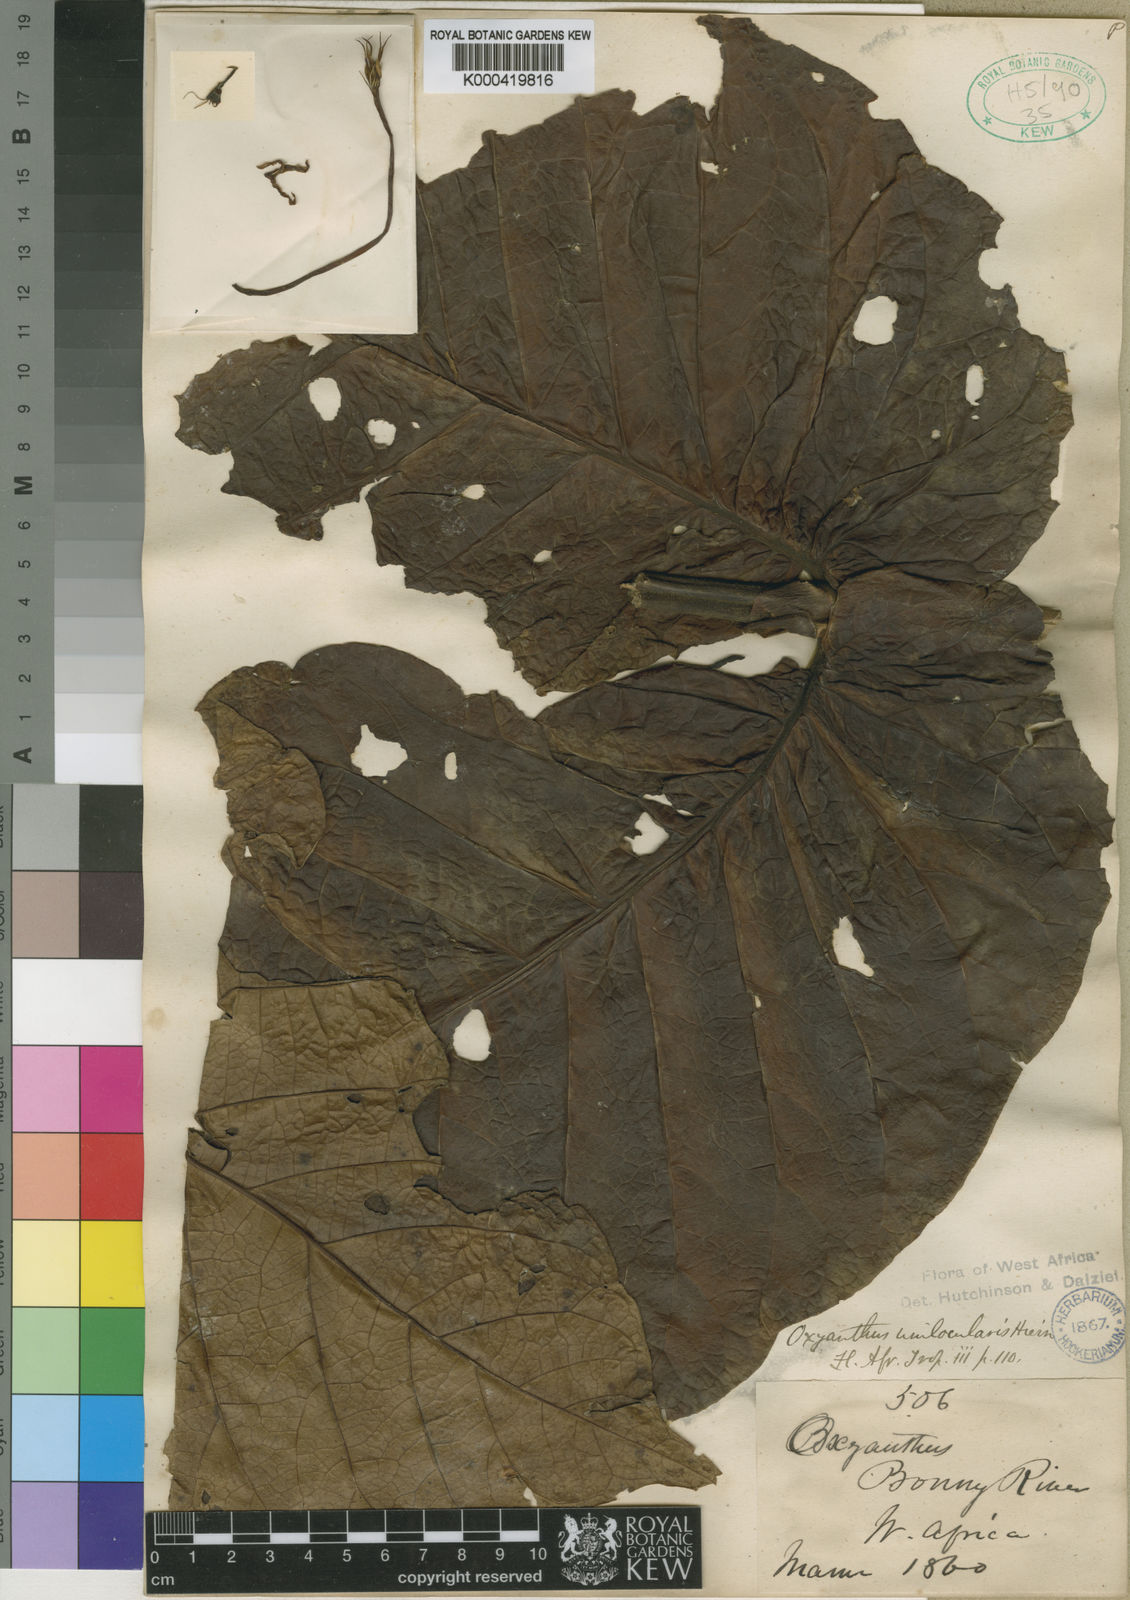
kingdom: Plantae
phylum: Tracheophyta
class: Magnoliopsida
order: Gentianales
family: Rubiaceae
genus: Oxyanthus
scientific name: Oxyanthus unilocularis
